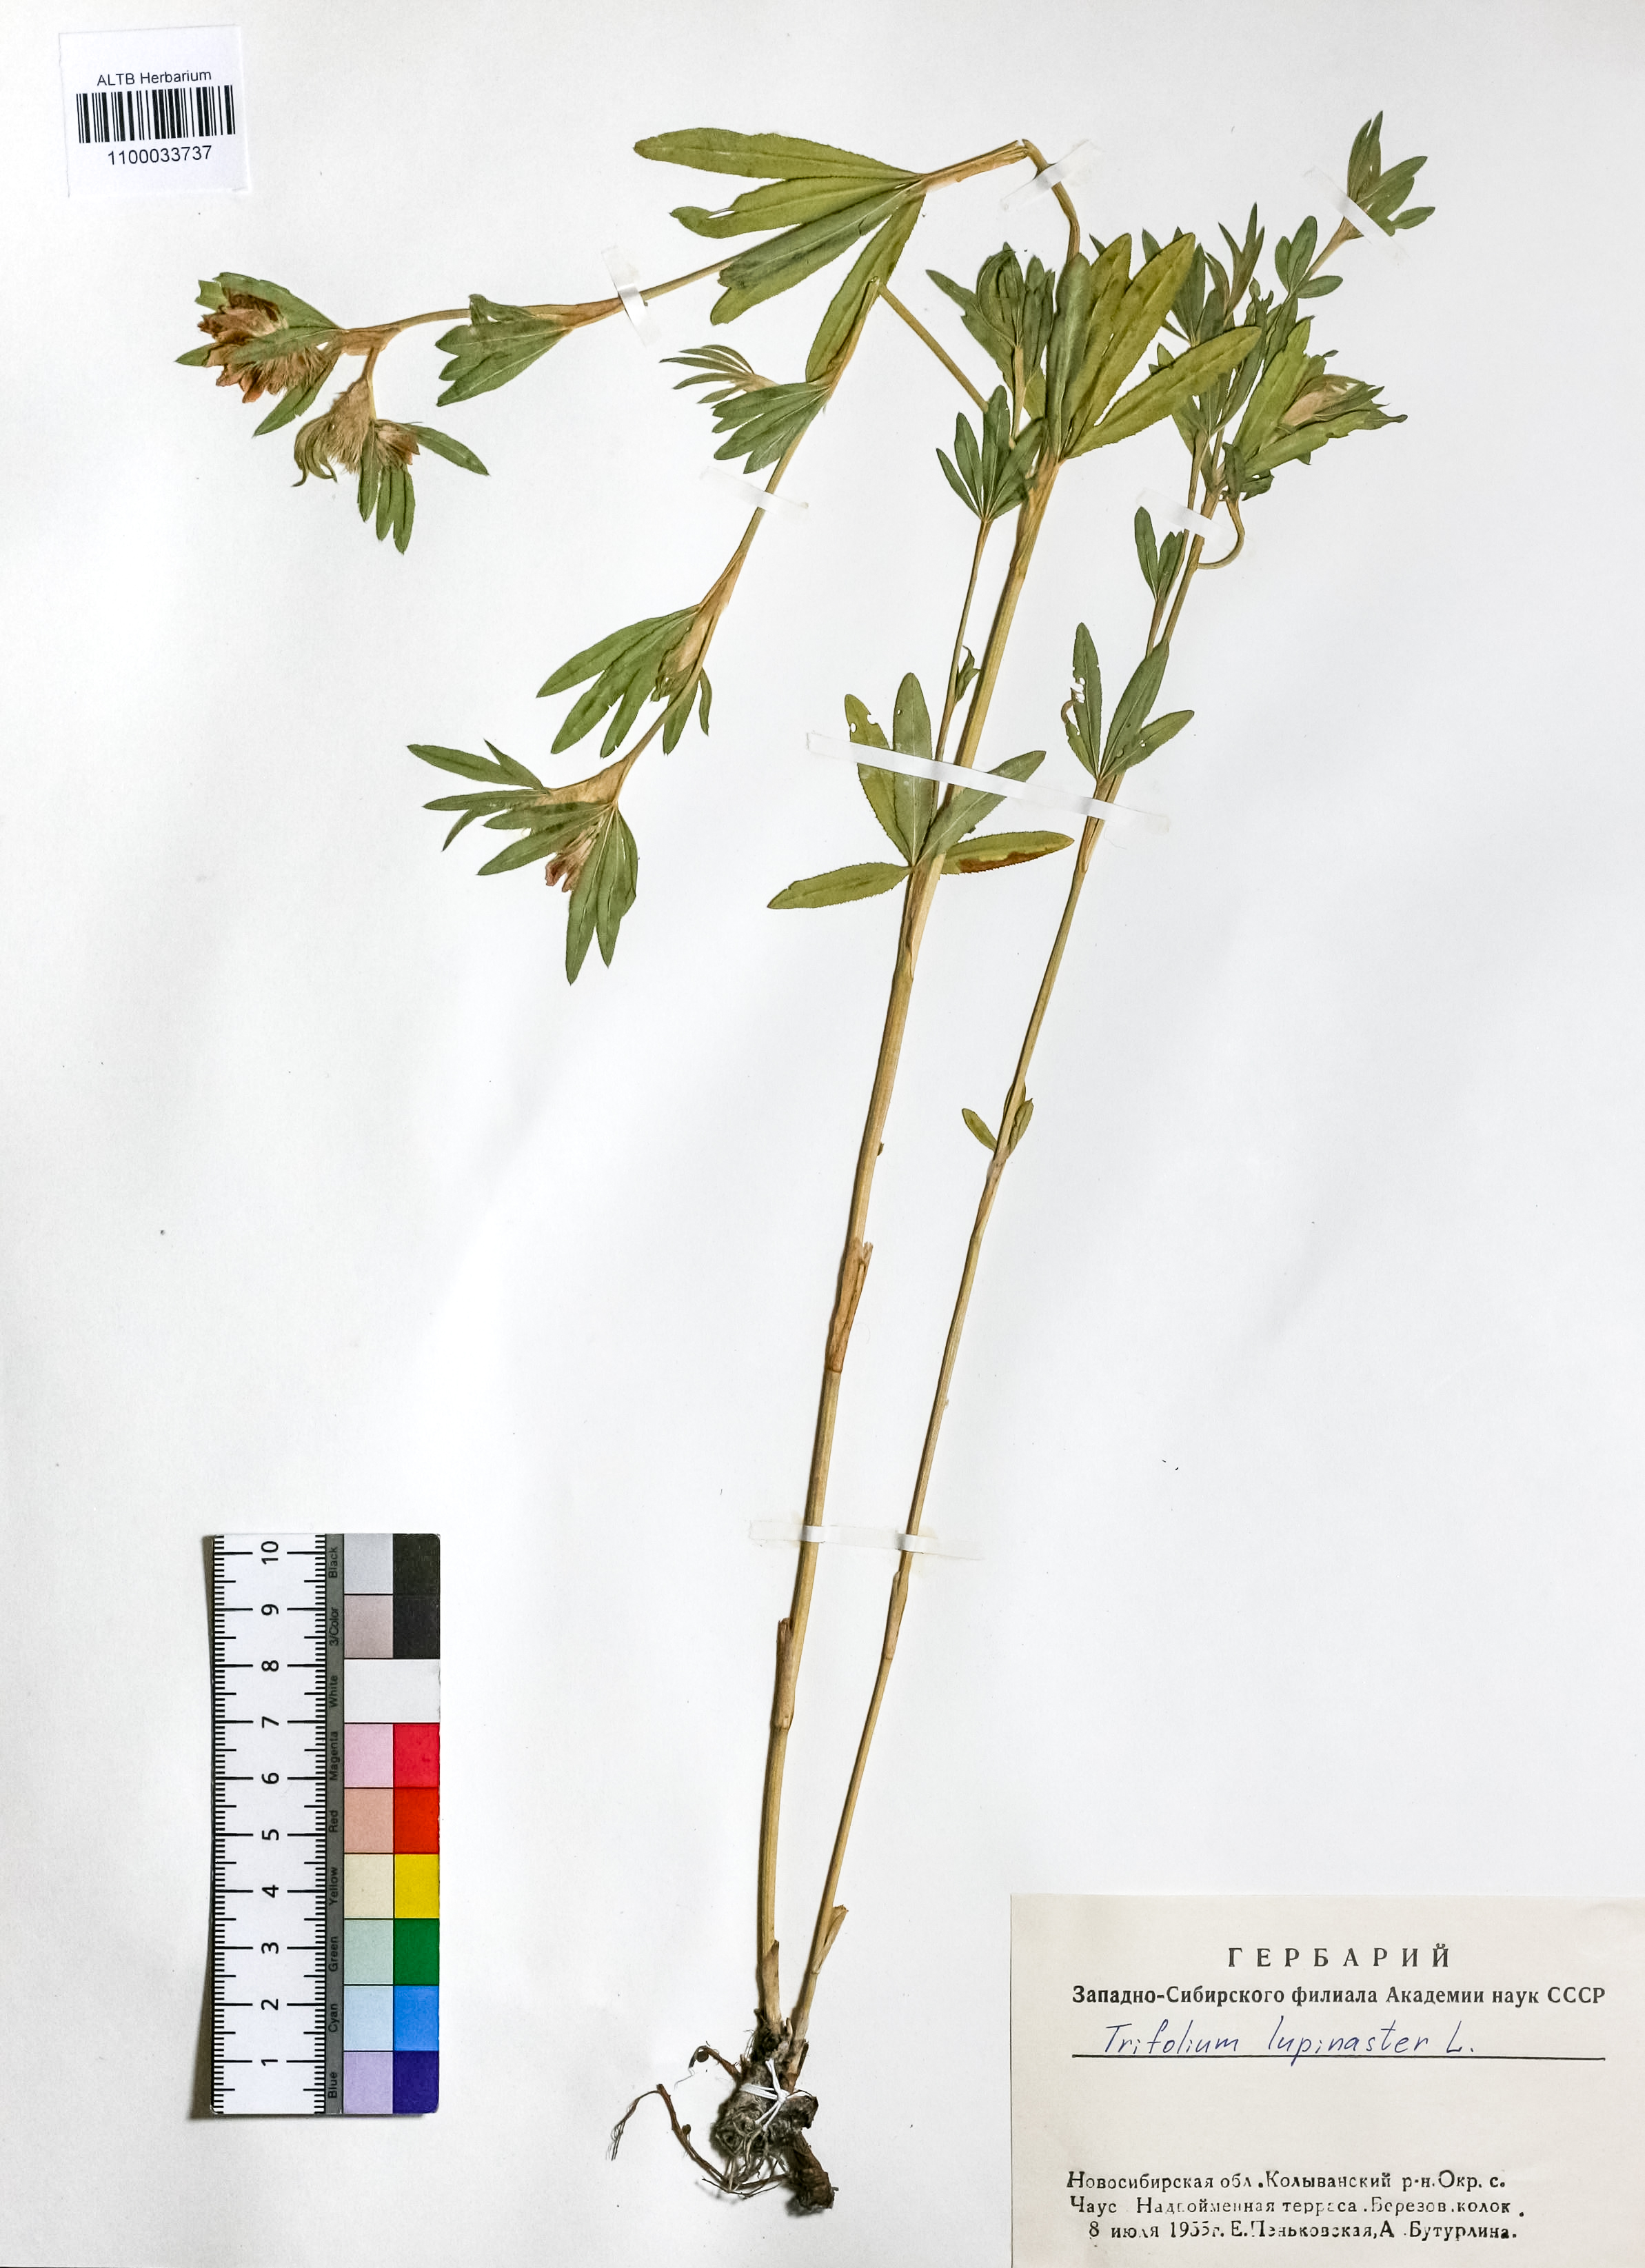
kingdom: Plantae
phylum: Tracheophyta
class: Magnoliopsida
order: Fabales
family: Fabaceae
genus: Trifolium
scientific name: Trifolium lupinaster
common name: Lupine clover
